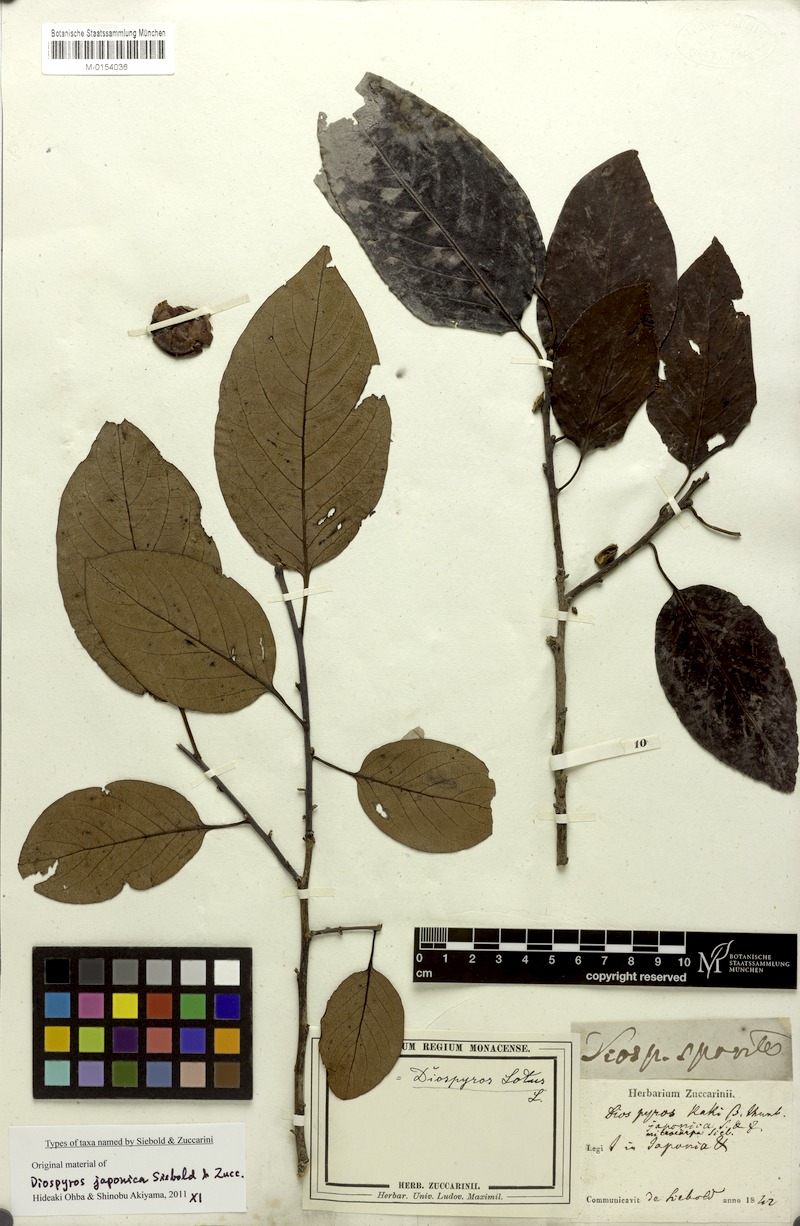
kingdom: Plantae
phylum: Tracheophyta
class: Magnoliopsida
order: Ericales
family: Ebenaceae
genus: Diospyros
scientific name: Diospyros japonica
